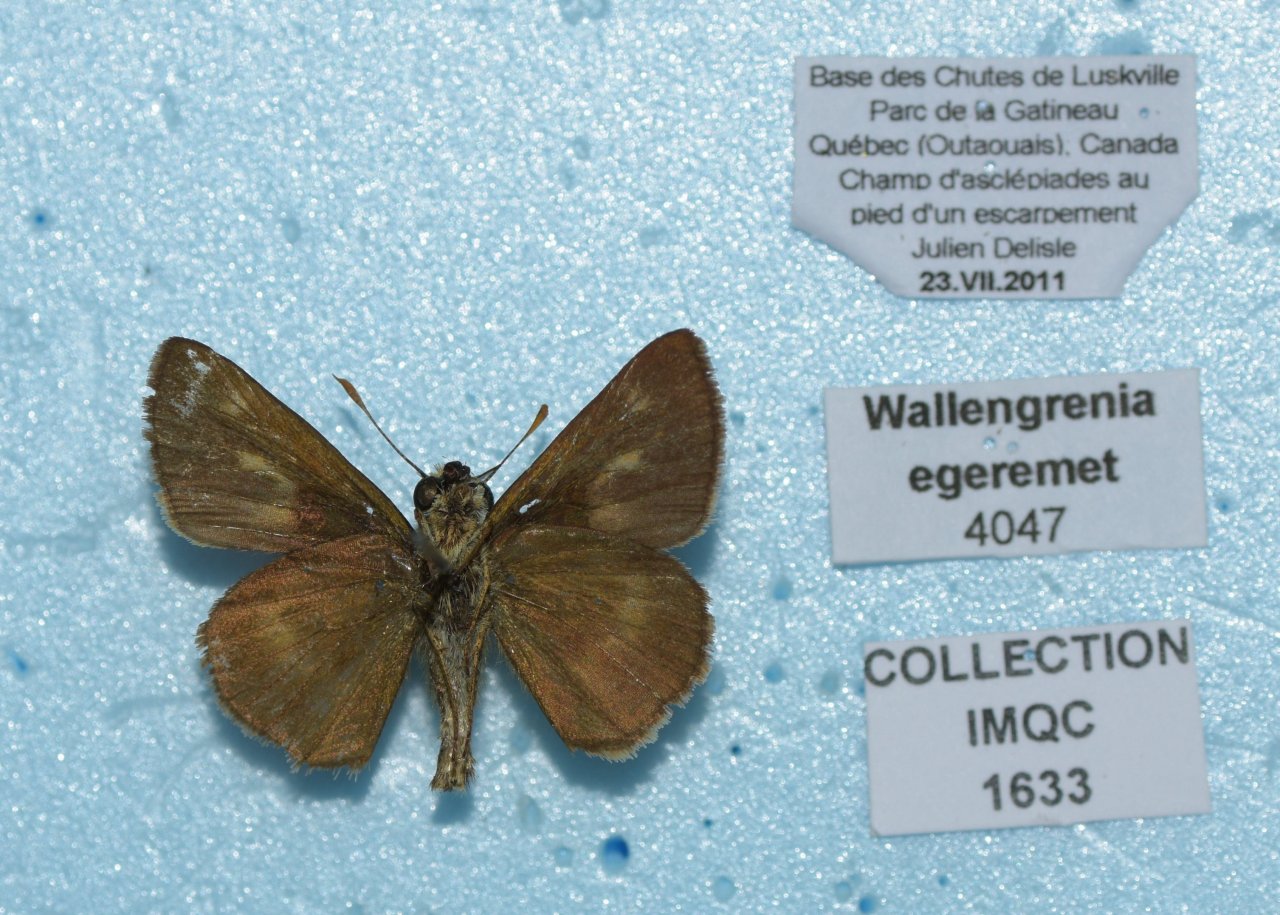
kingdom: Animalia
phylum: Arthropoda
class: Insecta
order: Lepidoptera
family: Hesperiidae
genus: Polites
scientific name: Polites egeremet
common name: Northern Broken-Dash
